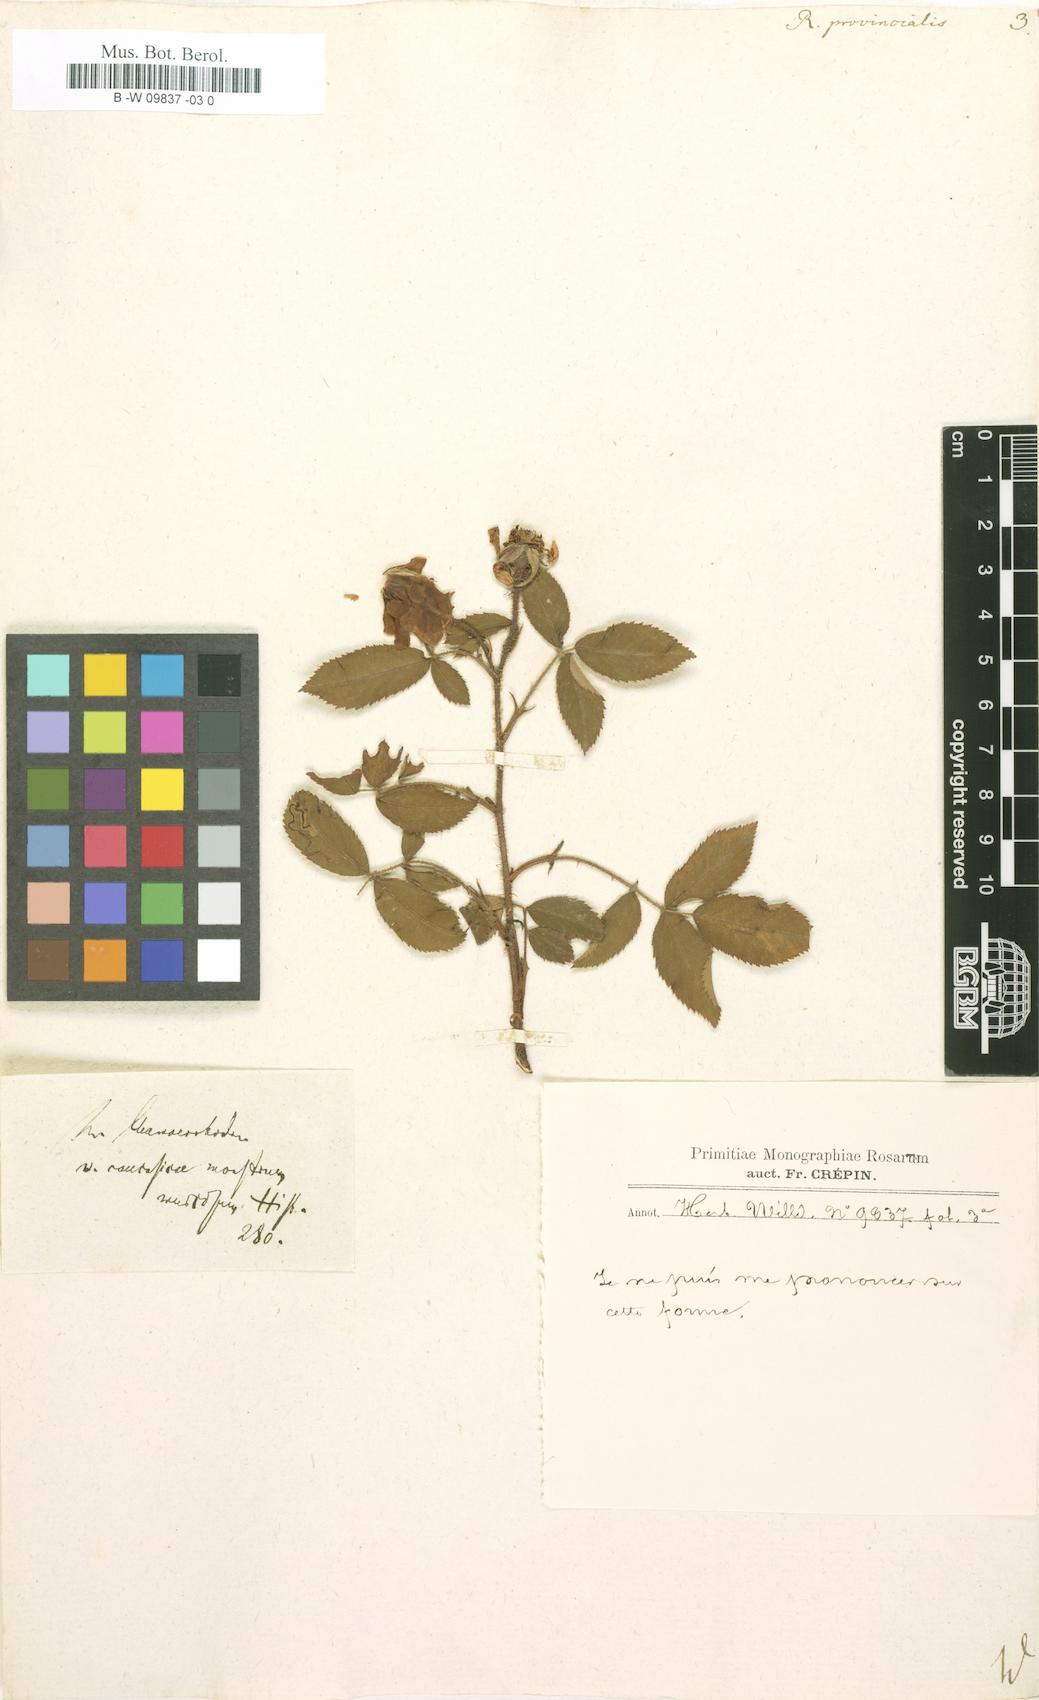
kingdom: Plantae
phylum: Tracheophyta
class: Magnoliopsida
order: Rosales
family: Rosaceae
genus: Rosa
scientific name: Rosa
